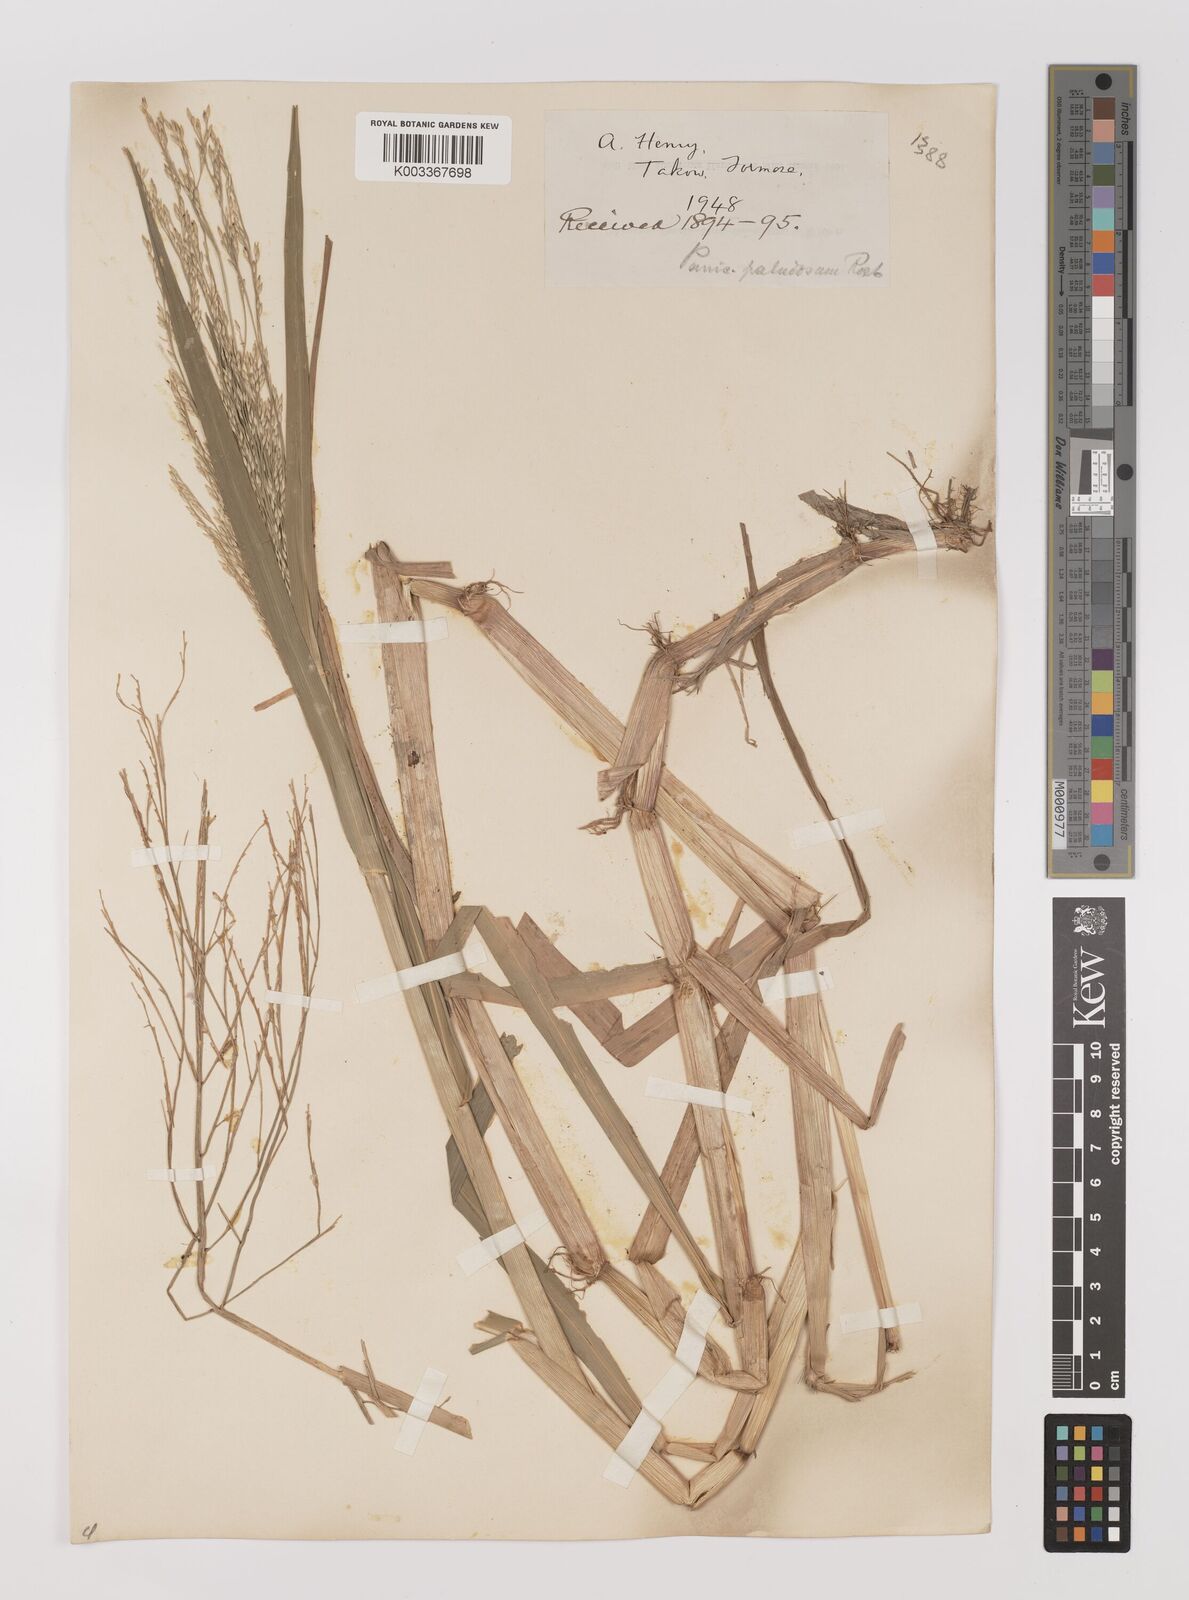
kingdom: Plantae
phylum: Tracheophyta
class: Liliopsida
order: Poales
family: Poaceae
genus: Panicum
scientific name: Panicum dichotomiflorum
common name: Autumn millet
